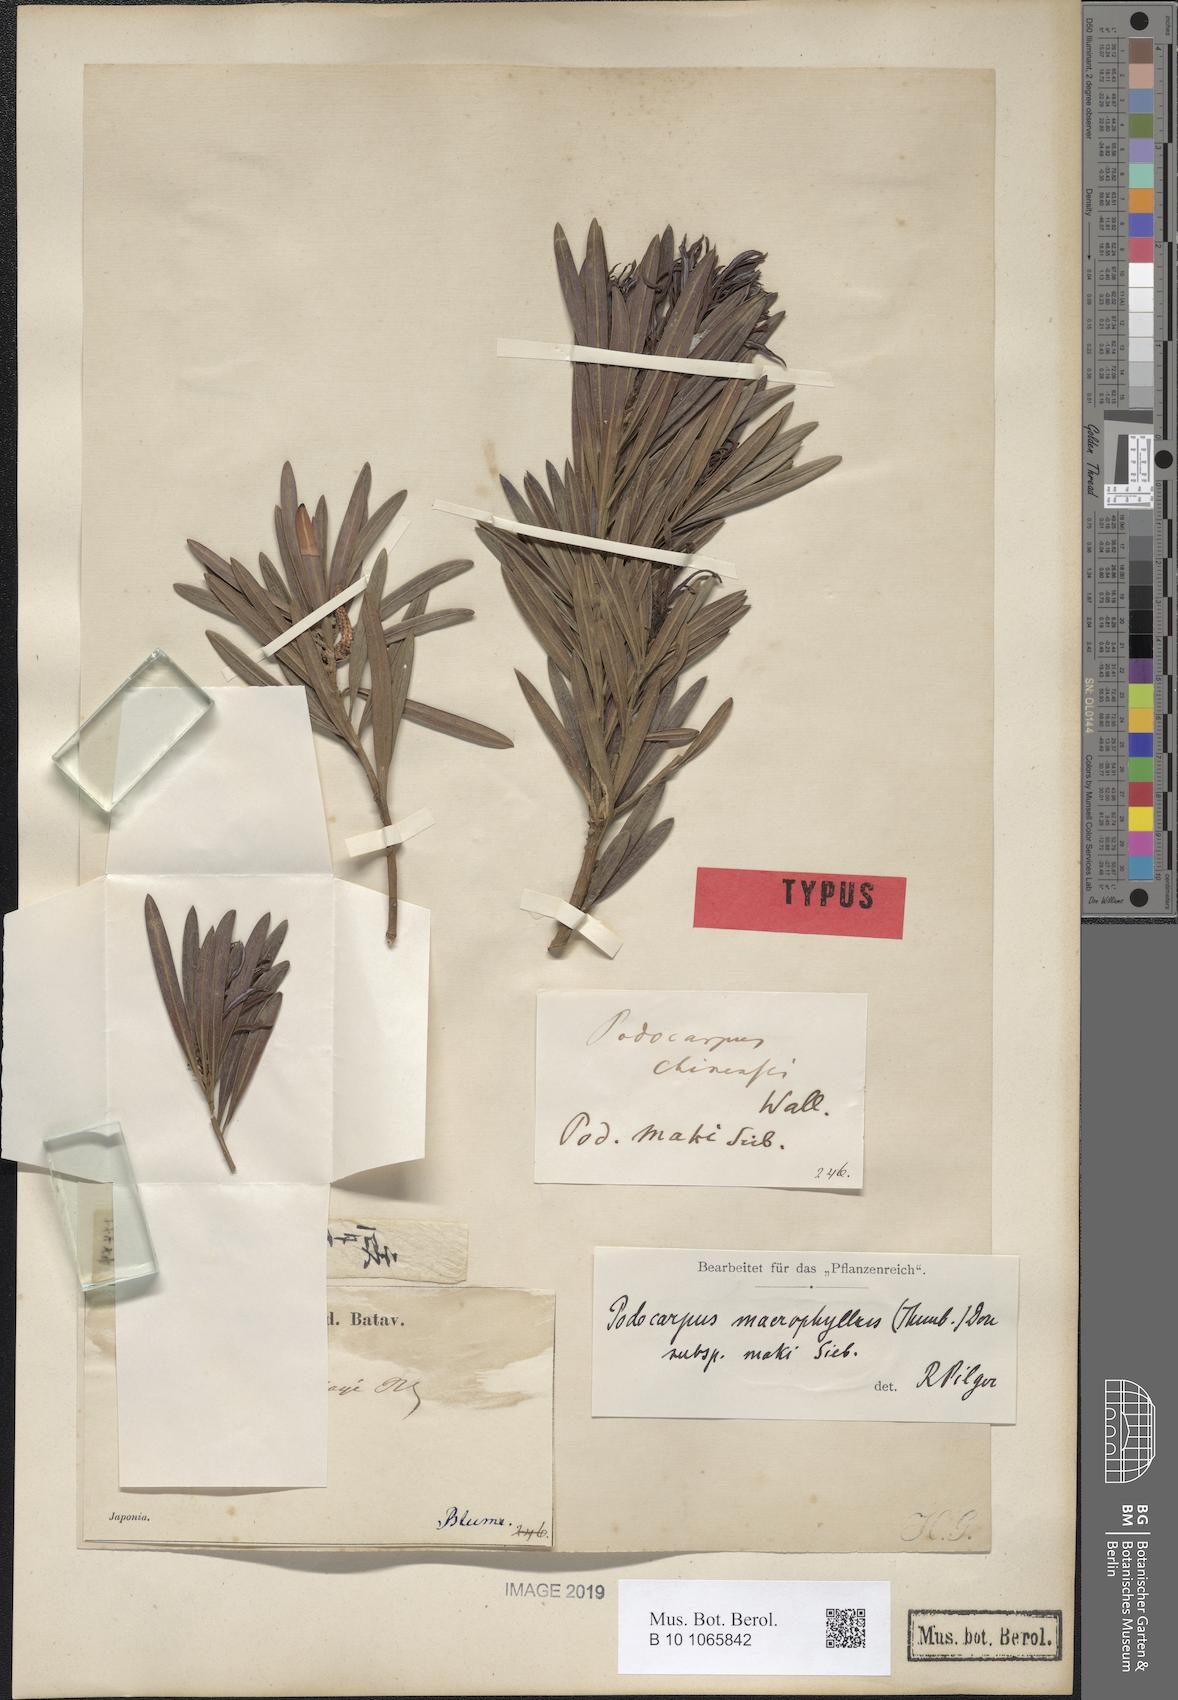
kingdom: Plantae
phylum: Tracheophyta
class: Pinopsida
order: Pinales
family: Podocarpaceae
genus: Podocarpus
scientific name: Podocarpus macrophyllus
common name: Japanese yew
